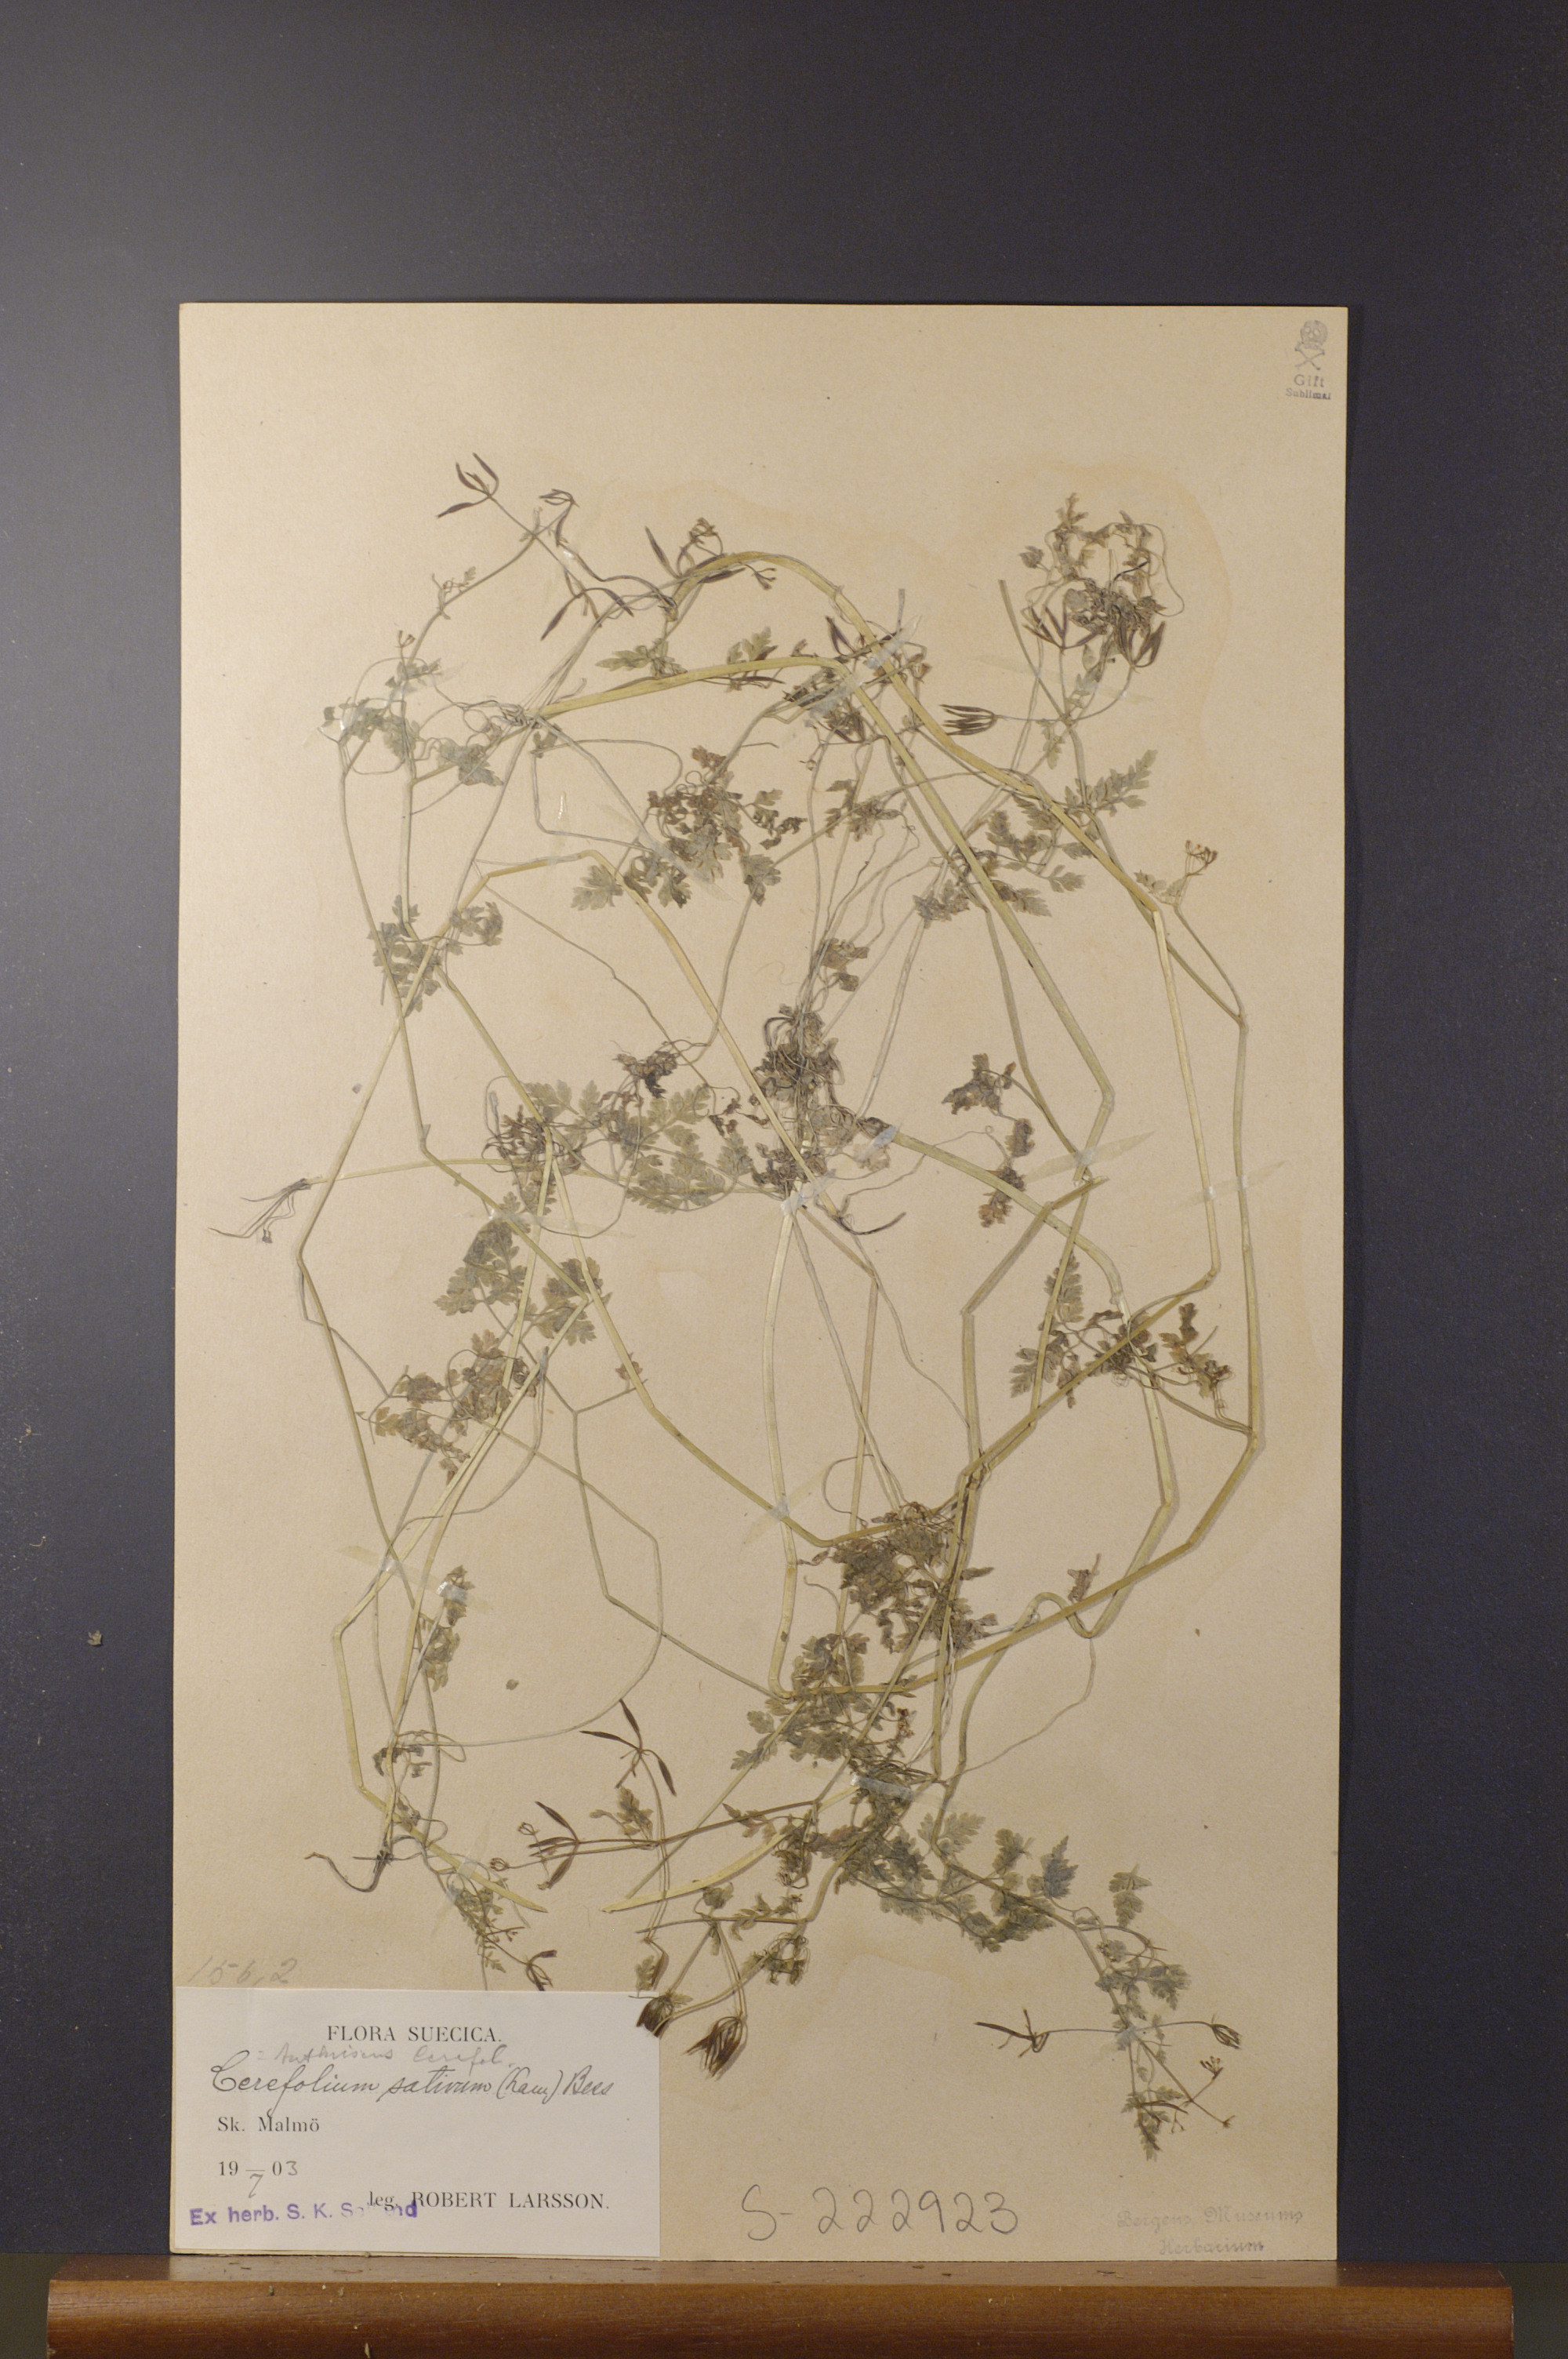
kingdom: Plantae
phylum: Tracheophyta
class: Magnoliopsida
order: Apiales
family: Apiaceae
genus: Anthriscus
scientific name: Anthriscus cerefolium
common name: Garden chervil
